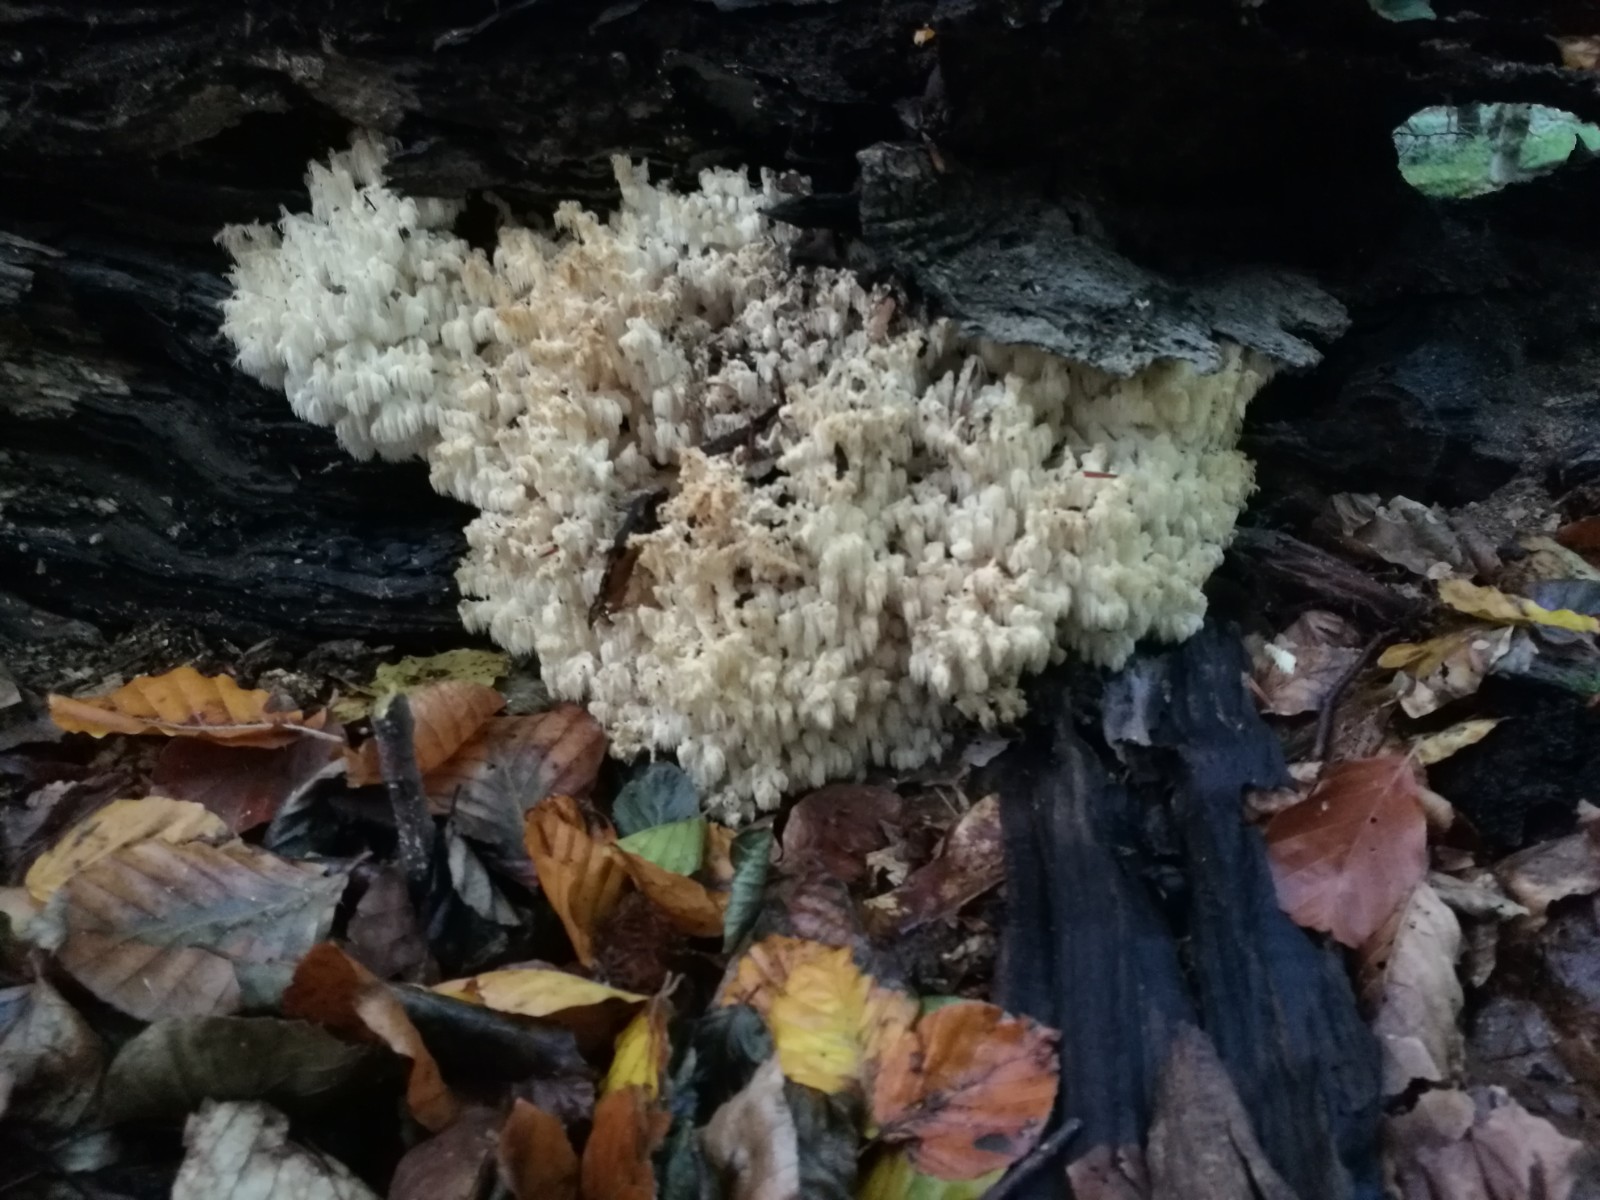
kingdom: Fungi
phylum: Basidiomycota
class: Agaricomycetes
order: Russulales
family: Hericiaceae
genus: Hericium
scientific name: Hericium coralloides
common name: koralpigsvamp
